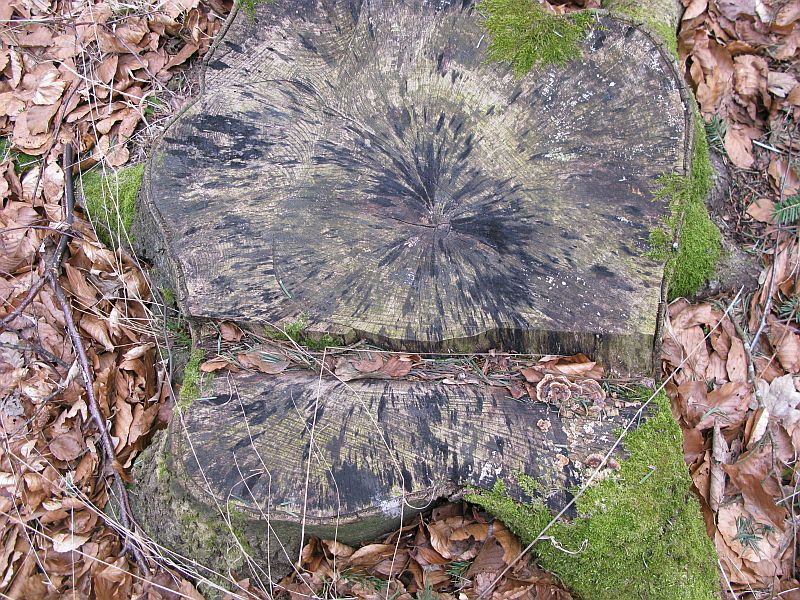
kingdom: Fungi
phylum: Ascomycota
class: Leotiomycetes
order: Helotiales
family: Helotiaceae
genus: Bispora
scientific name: Bispora pallescens
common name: måtte-snitskive
